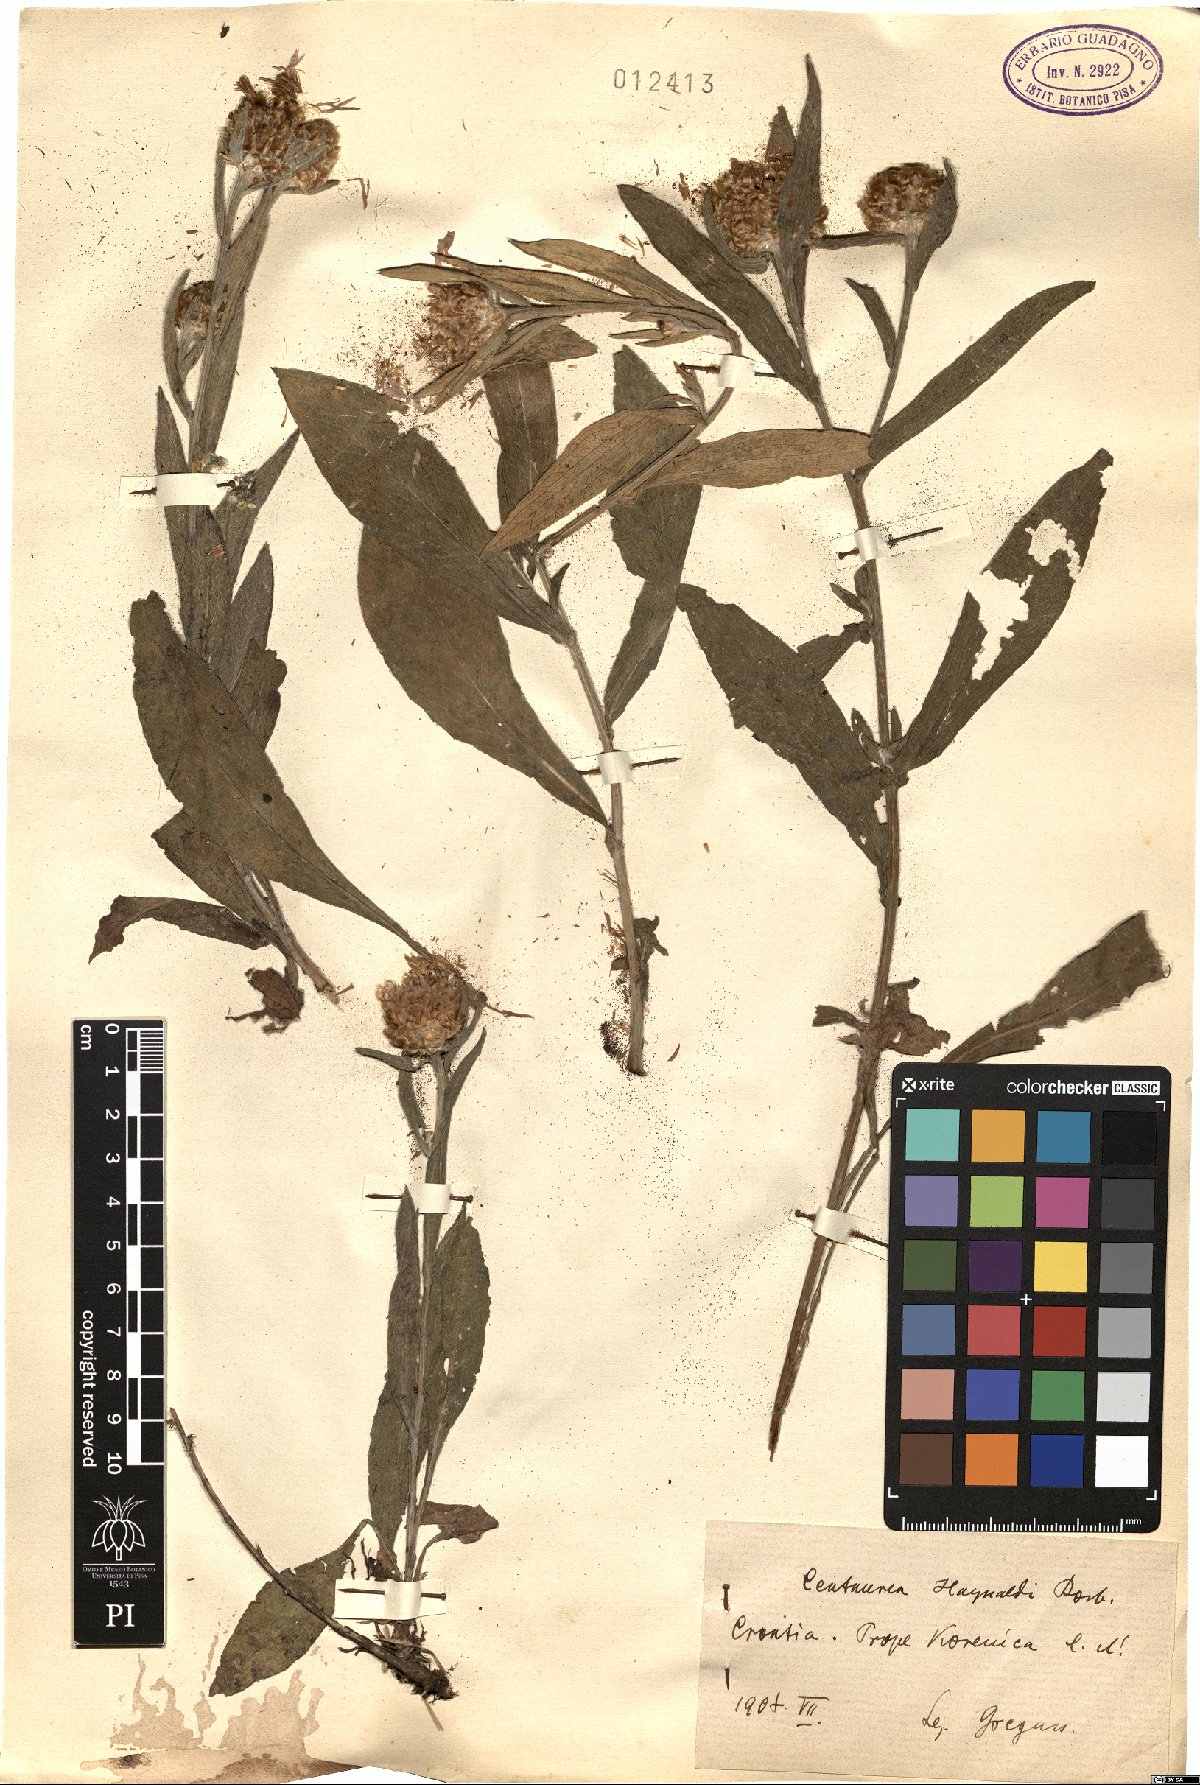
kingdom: Plantae
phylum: Tracheophyta
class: Magnoliopsida
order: Asterales
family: Asteraceae
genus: Centaurea
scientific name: Centaurea jacea
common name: Brown knapweed
